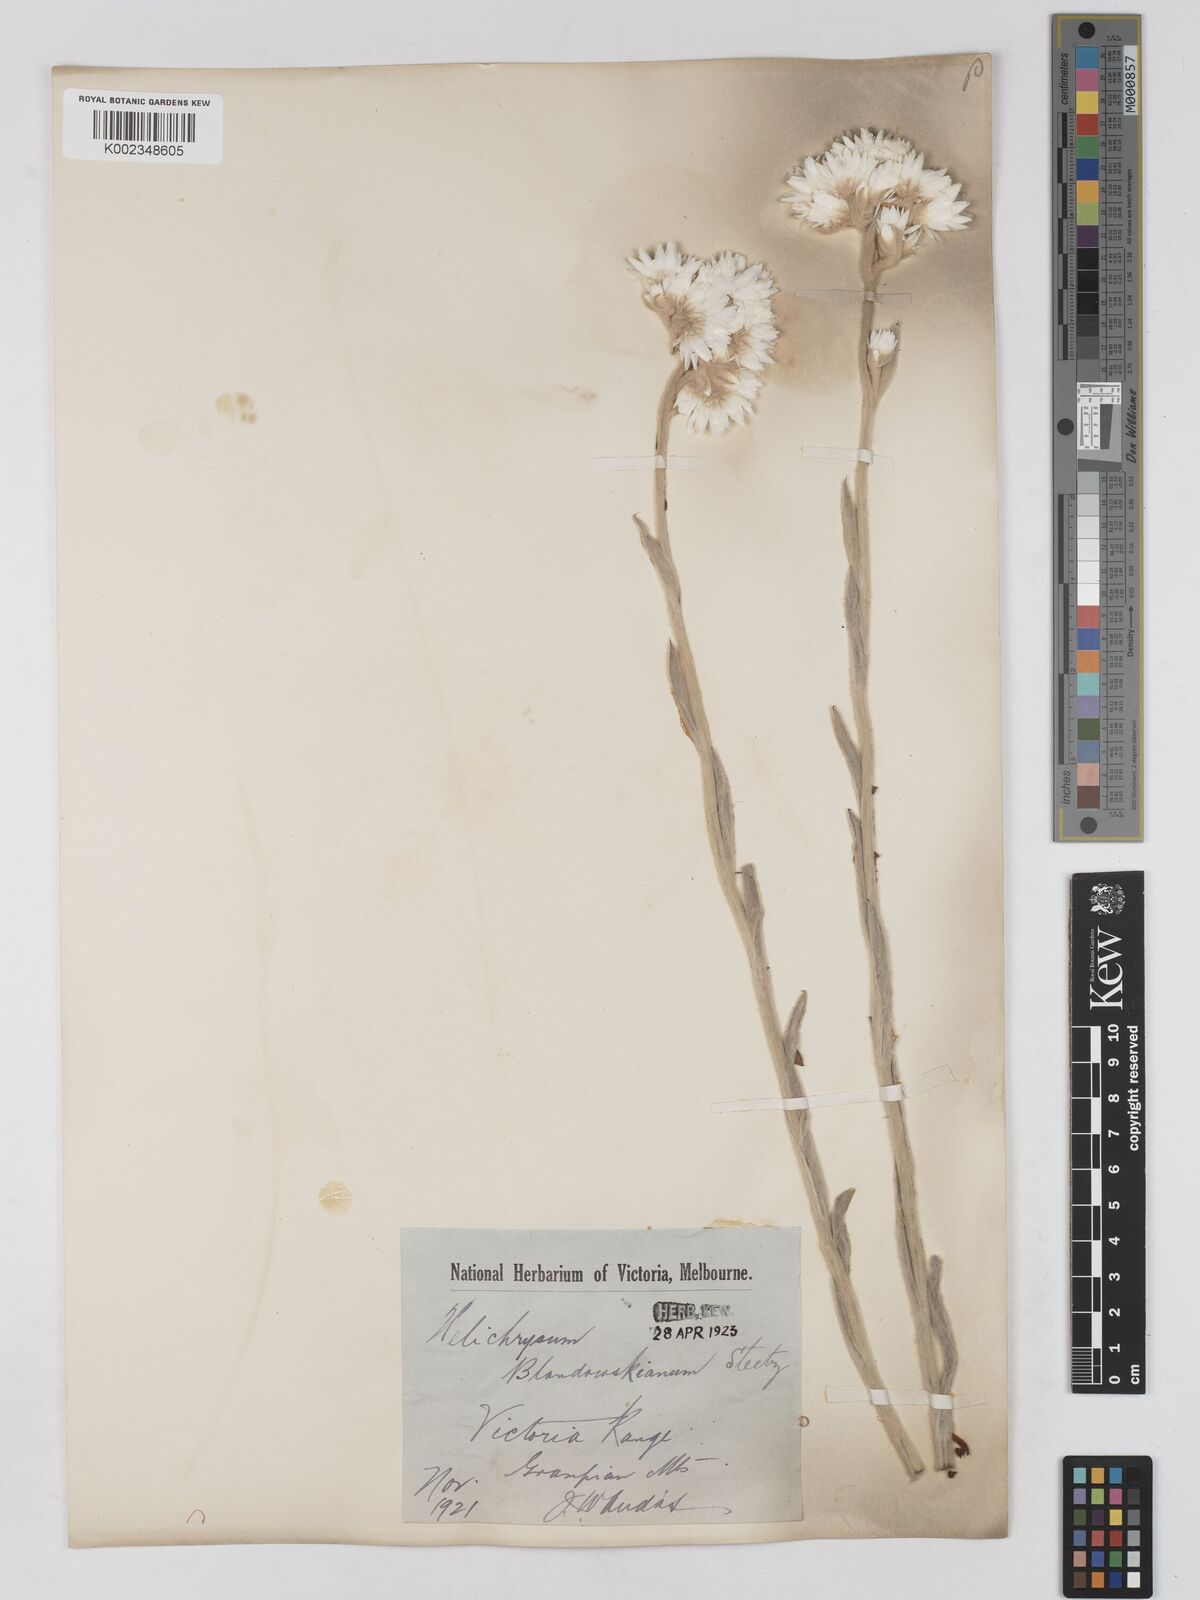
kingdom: Plantae
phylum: Tracheophyta
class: Magnoliopsida
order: Asterales
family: Asteraceae
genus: Argentipallium
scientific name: Argentipallium blandowskianum
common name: Woolly everlasting
